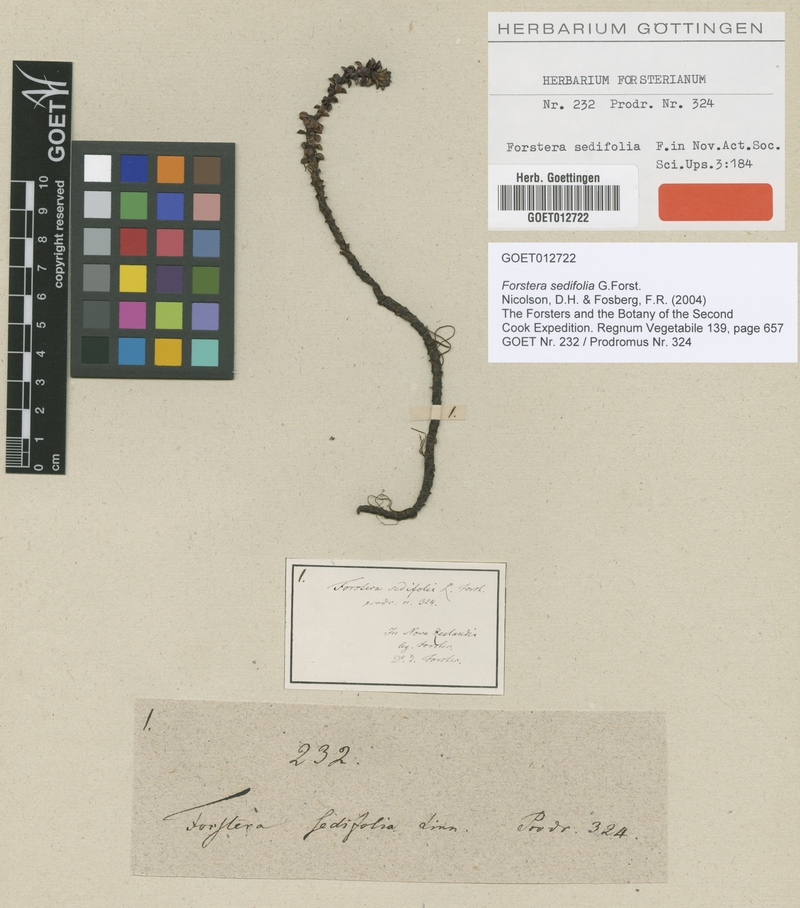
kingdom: Plantae
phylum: Tracheophyta
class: Magnoliopsida
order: Asterales
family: Stylidiaceae
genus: Forstera
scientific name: Forstera sedifolia
